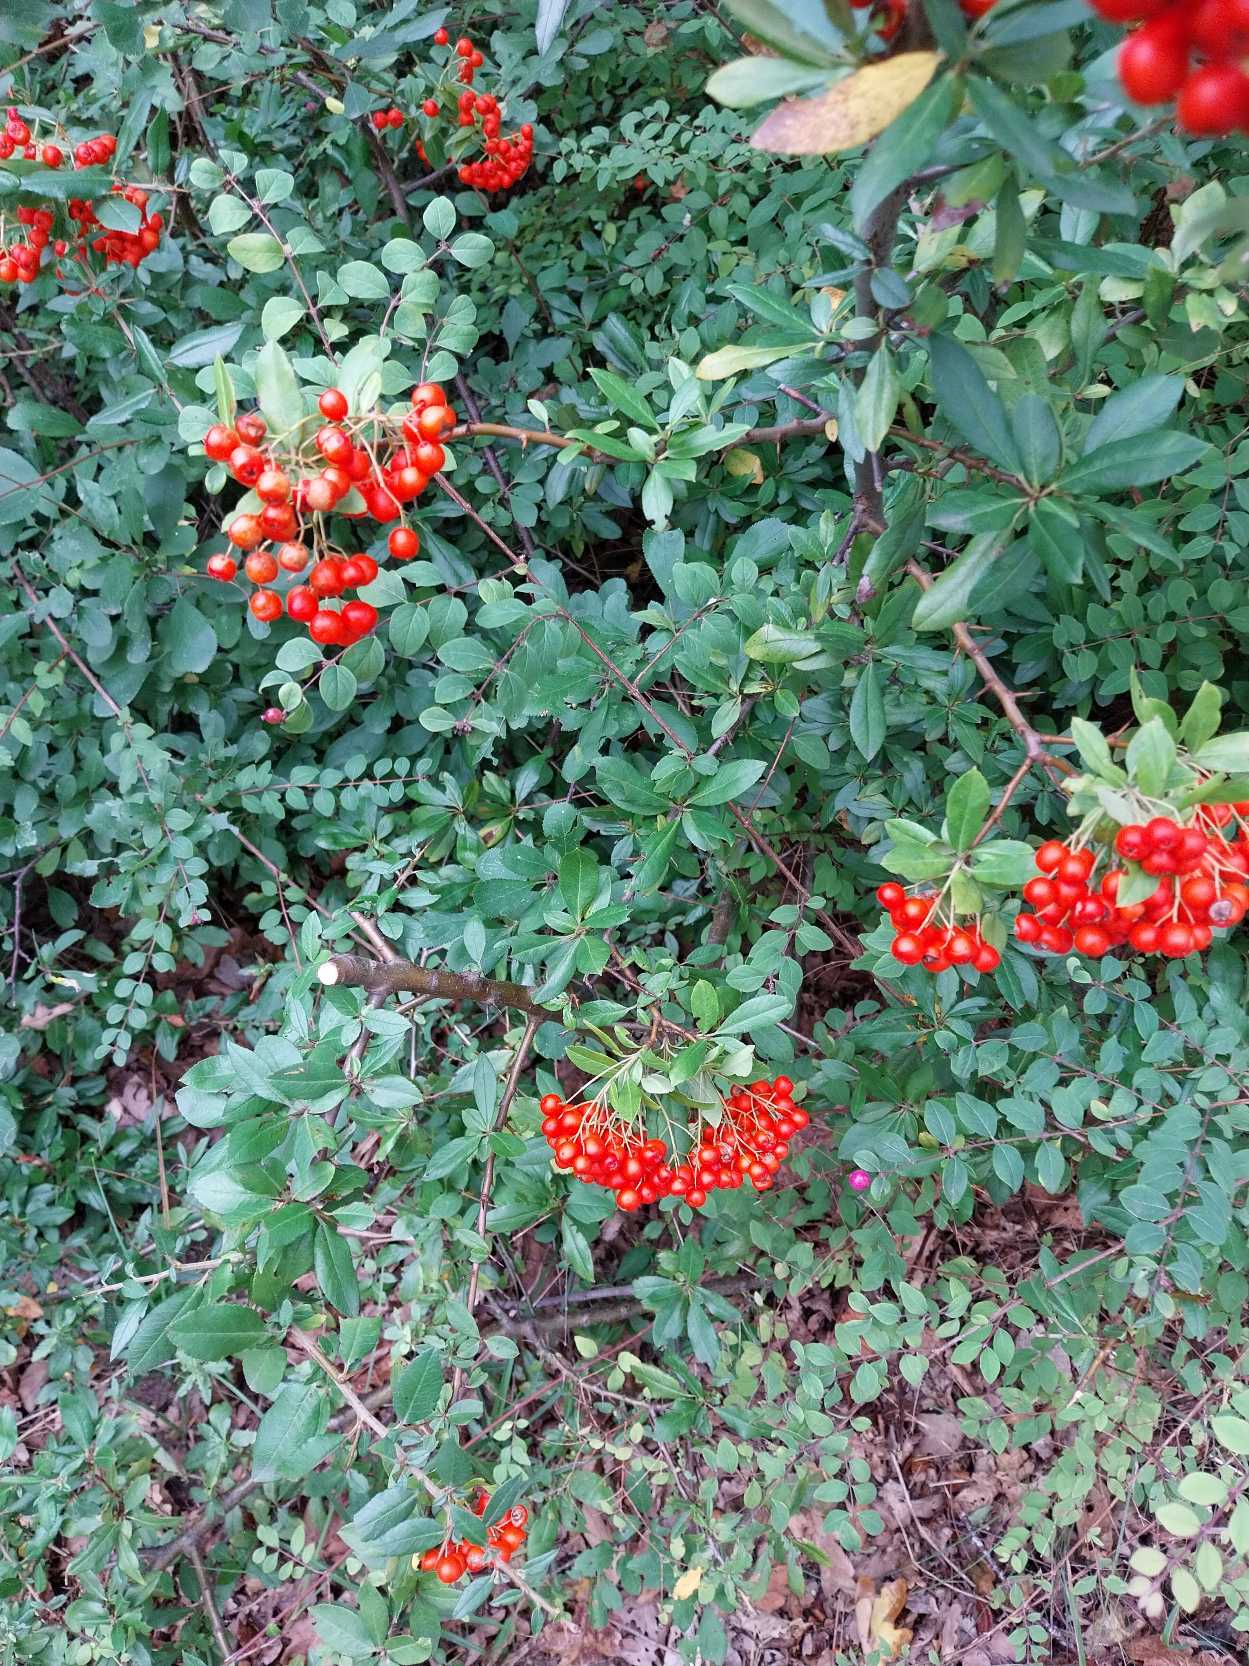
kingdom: Plantae
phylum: Tracheophyta
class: Magnoliopsida
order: Rosales
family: Rosaceae
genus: Pyracantha
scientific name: Pyracantha coccinea
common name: Ildtorn
